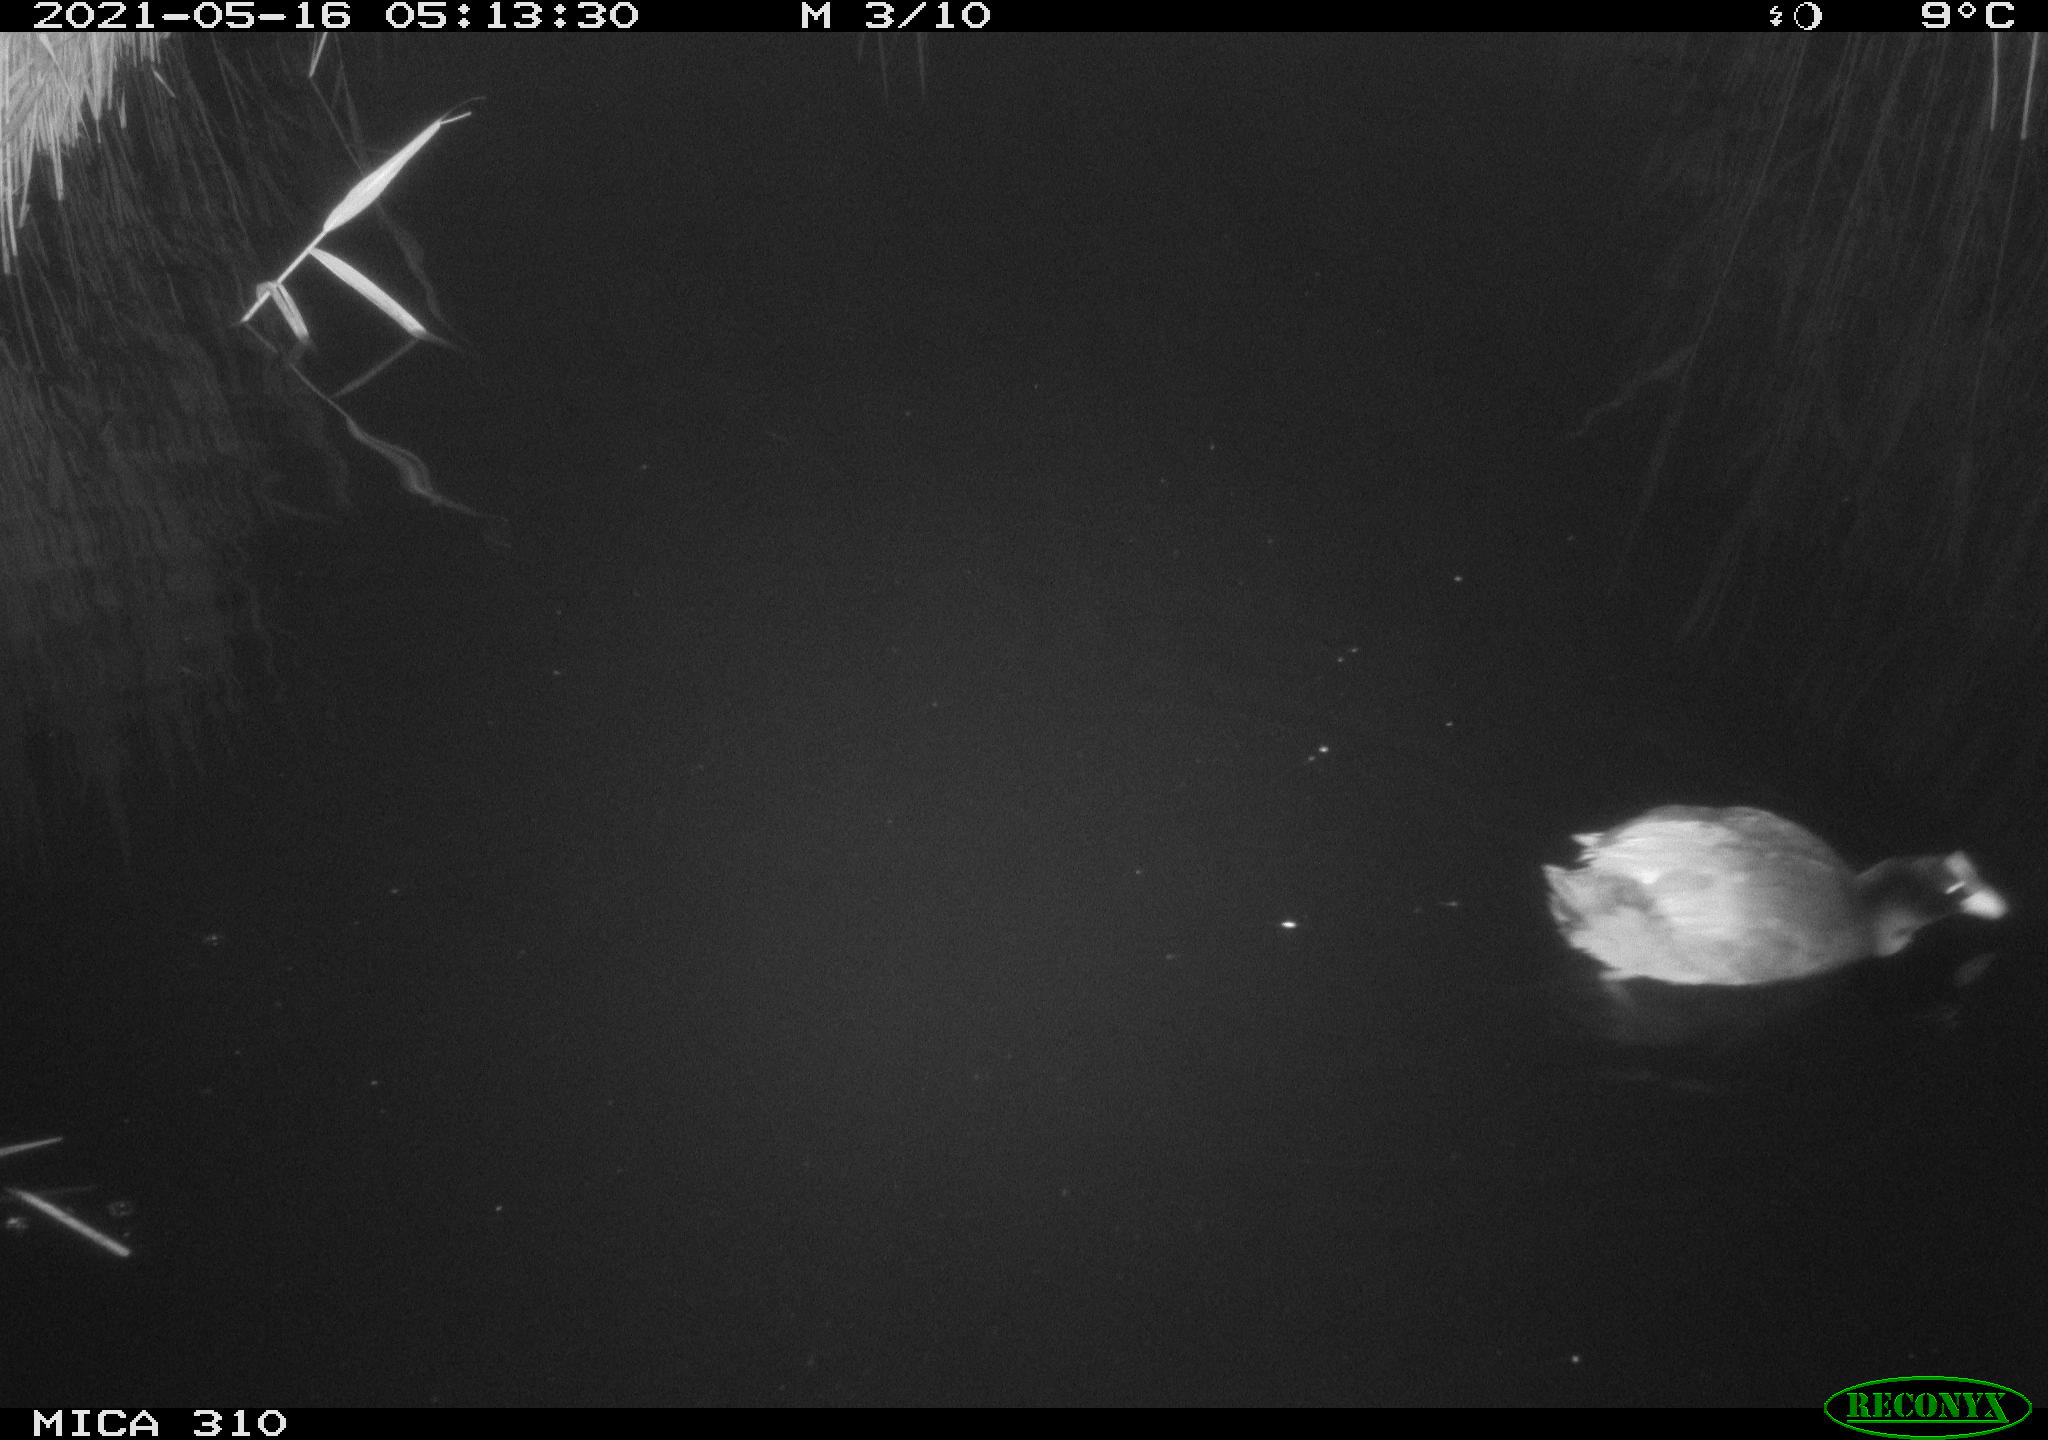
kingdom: Animalia
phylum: Chordata
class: Aves
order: Gruiformes
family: Rallidae
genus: Fulica
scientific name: Fulica atra
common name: Eurasian coot
